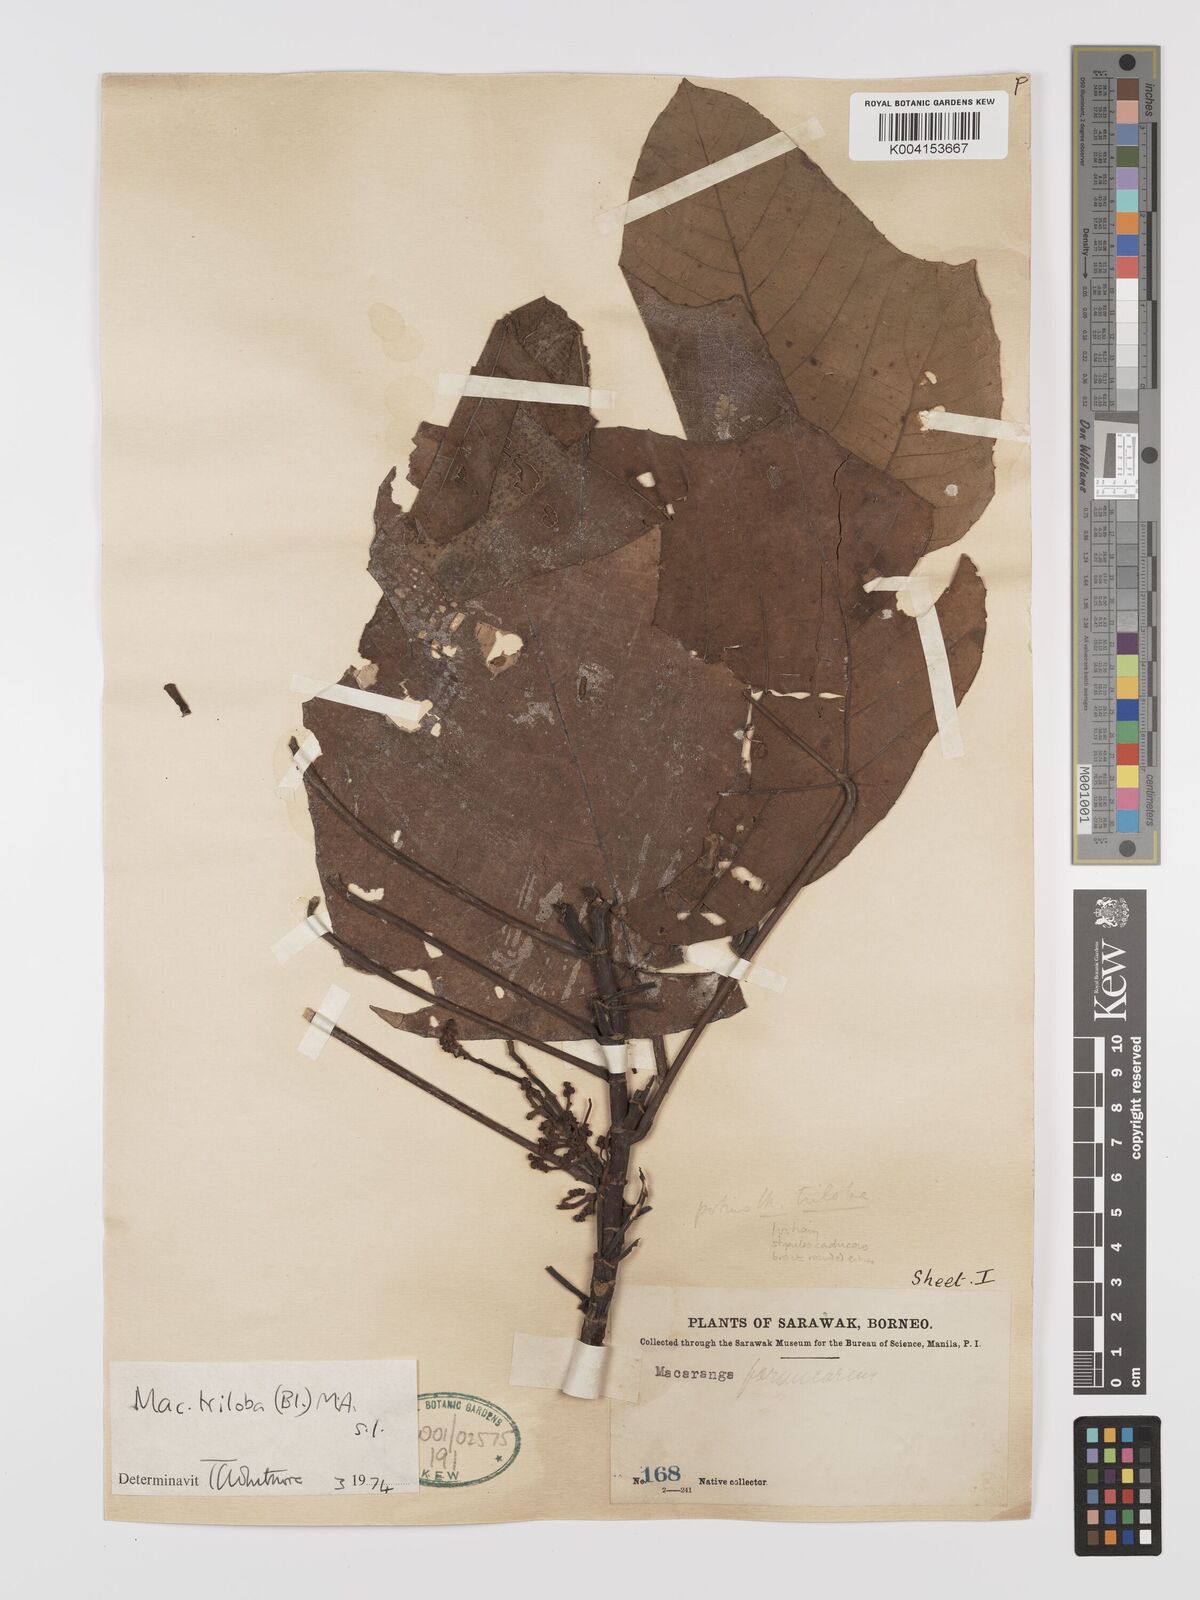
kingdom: Plantae
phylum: Tracheophyta
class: Magnoliopsida
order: Malpighiales
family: Euphorbiaceae
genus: Macaranga
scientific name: Macaranga triloba
